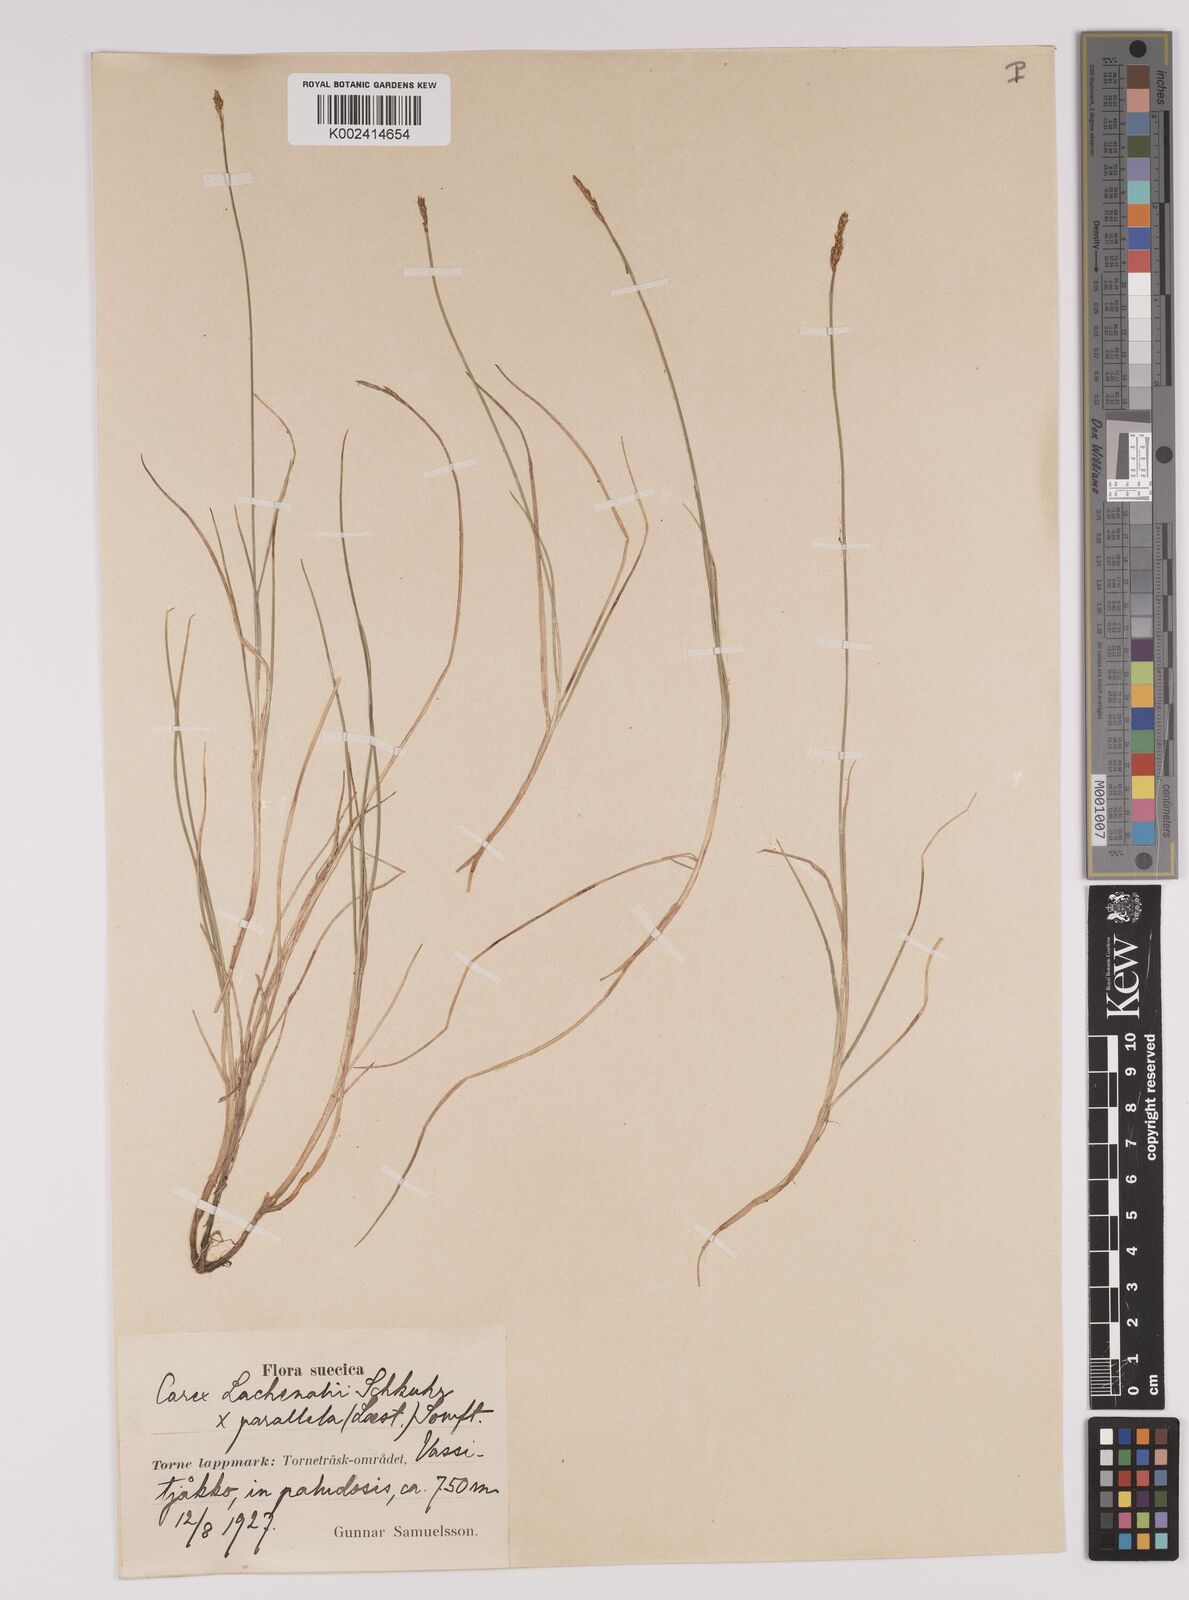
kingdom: Plantae
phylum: Tracheophyta
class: Liliopsida
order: Poales
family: Cyperaceae
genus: Carex
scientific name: Carex parallela
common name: Parallel sedge
